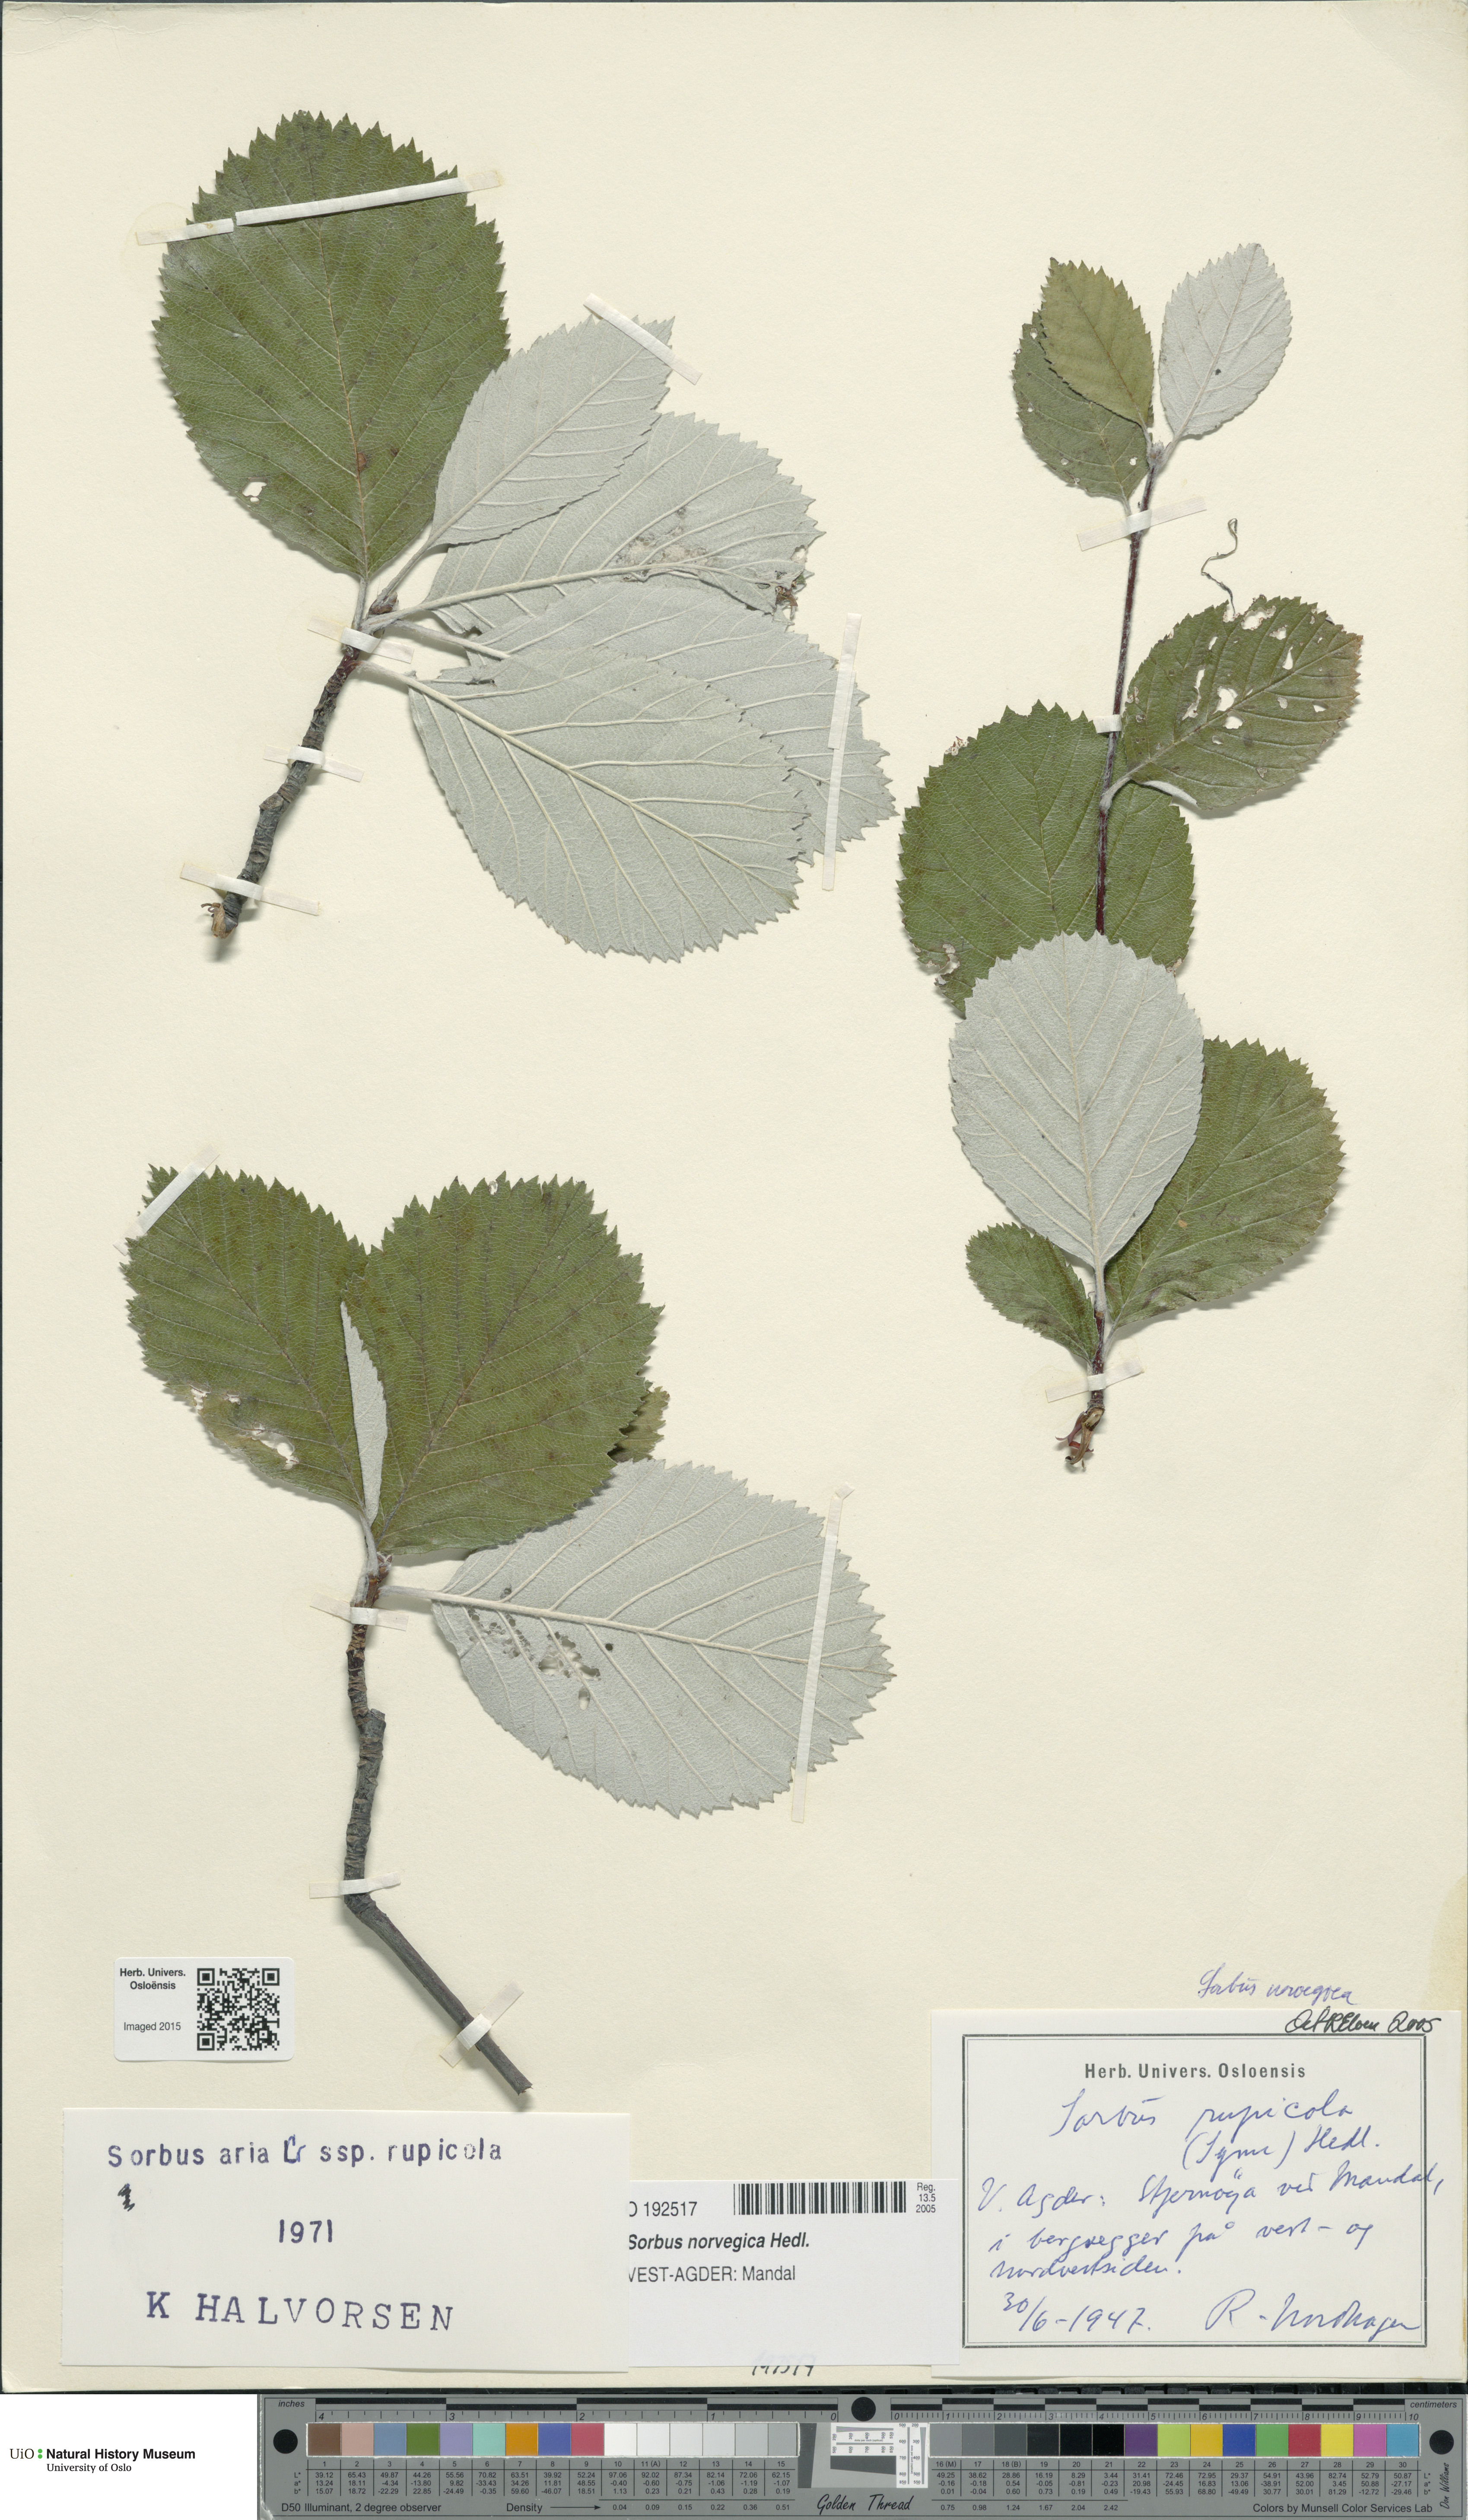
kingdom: Plantae
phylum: Tracheophyta
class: Magnoliopsida
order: Rosales
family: Rosaceae
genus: Aria
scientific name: Aria obtusifolia
